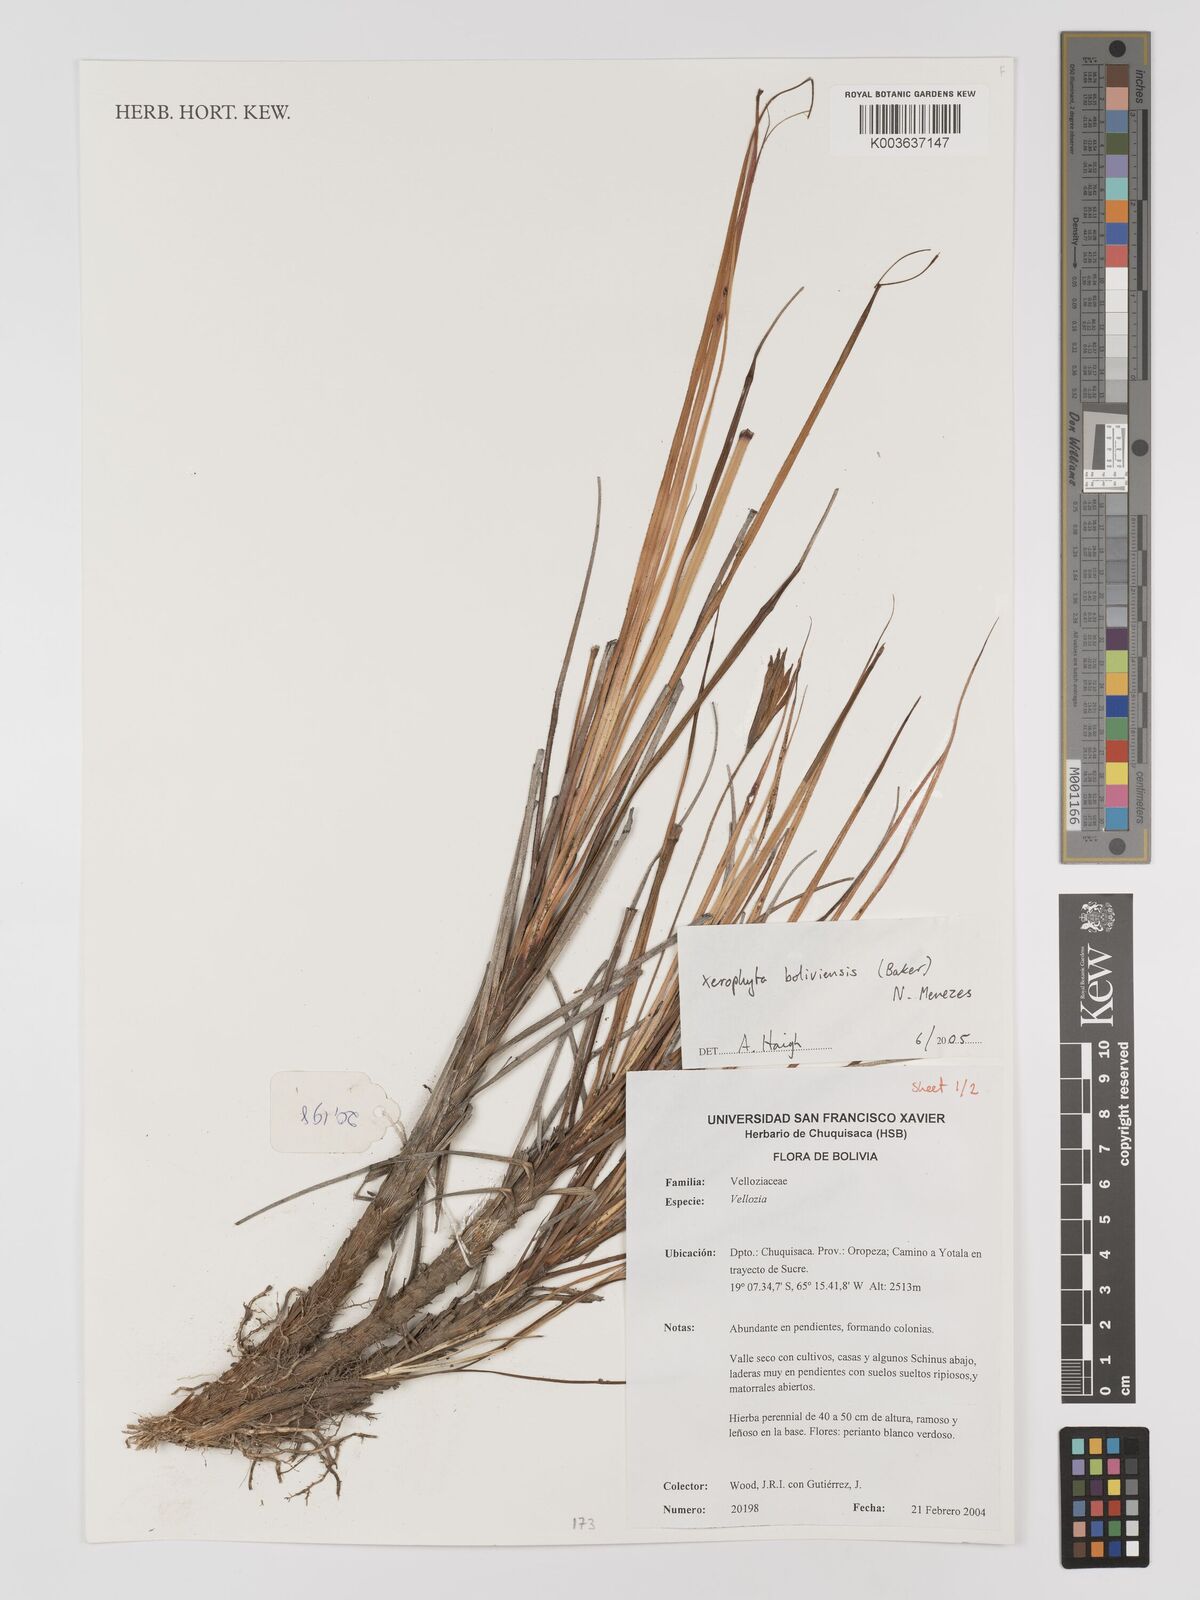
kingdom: Plantae
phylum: Tracheophyta
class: Liliopsida
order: Pandanales
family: Velloziaceae
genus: Barbaceniopsis
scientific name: Barbaceniopsis boliviensis
